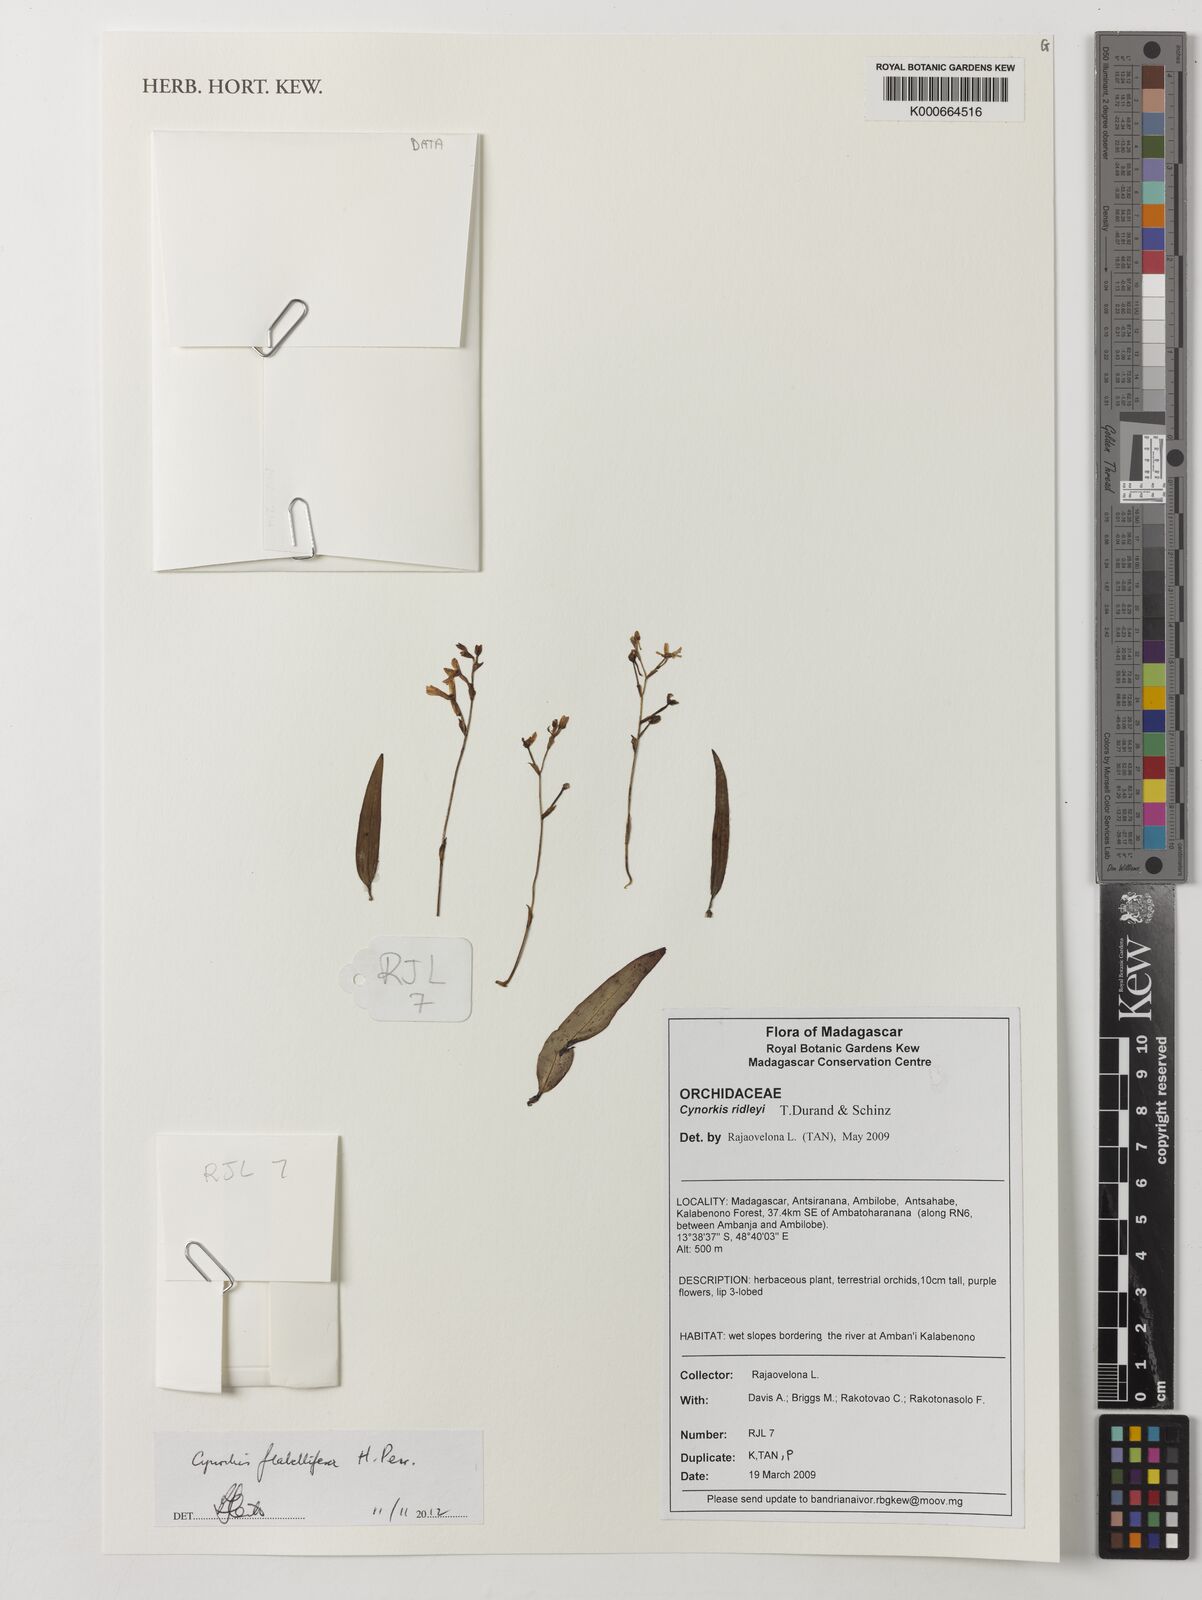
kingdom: Plantae
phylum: Tracheophyta
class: Liliopsida
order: Asparagales
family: Orchidaceae
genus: Cynorkis
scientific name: Cynorkis flabellifera
